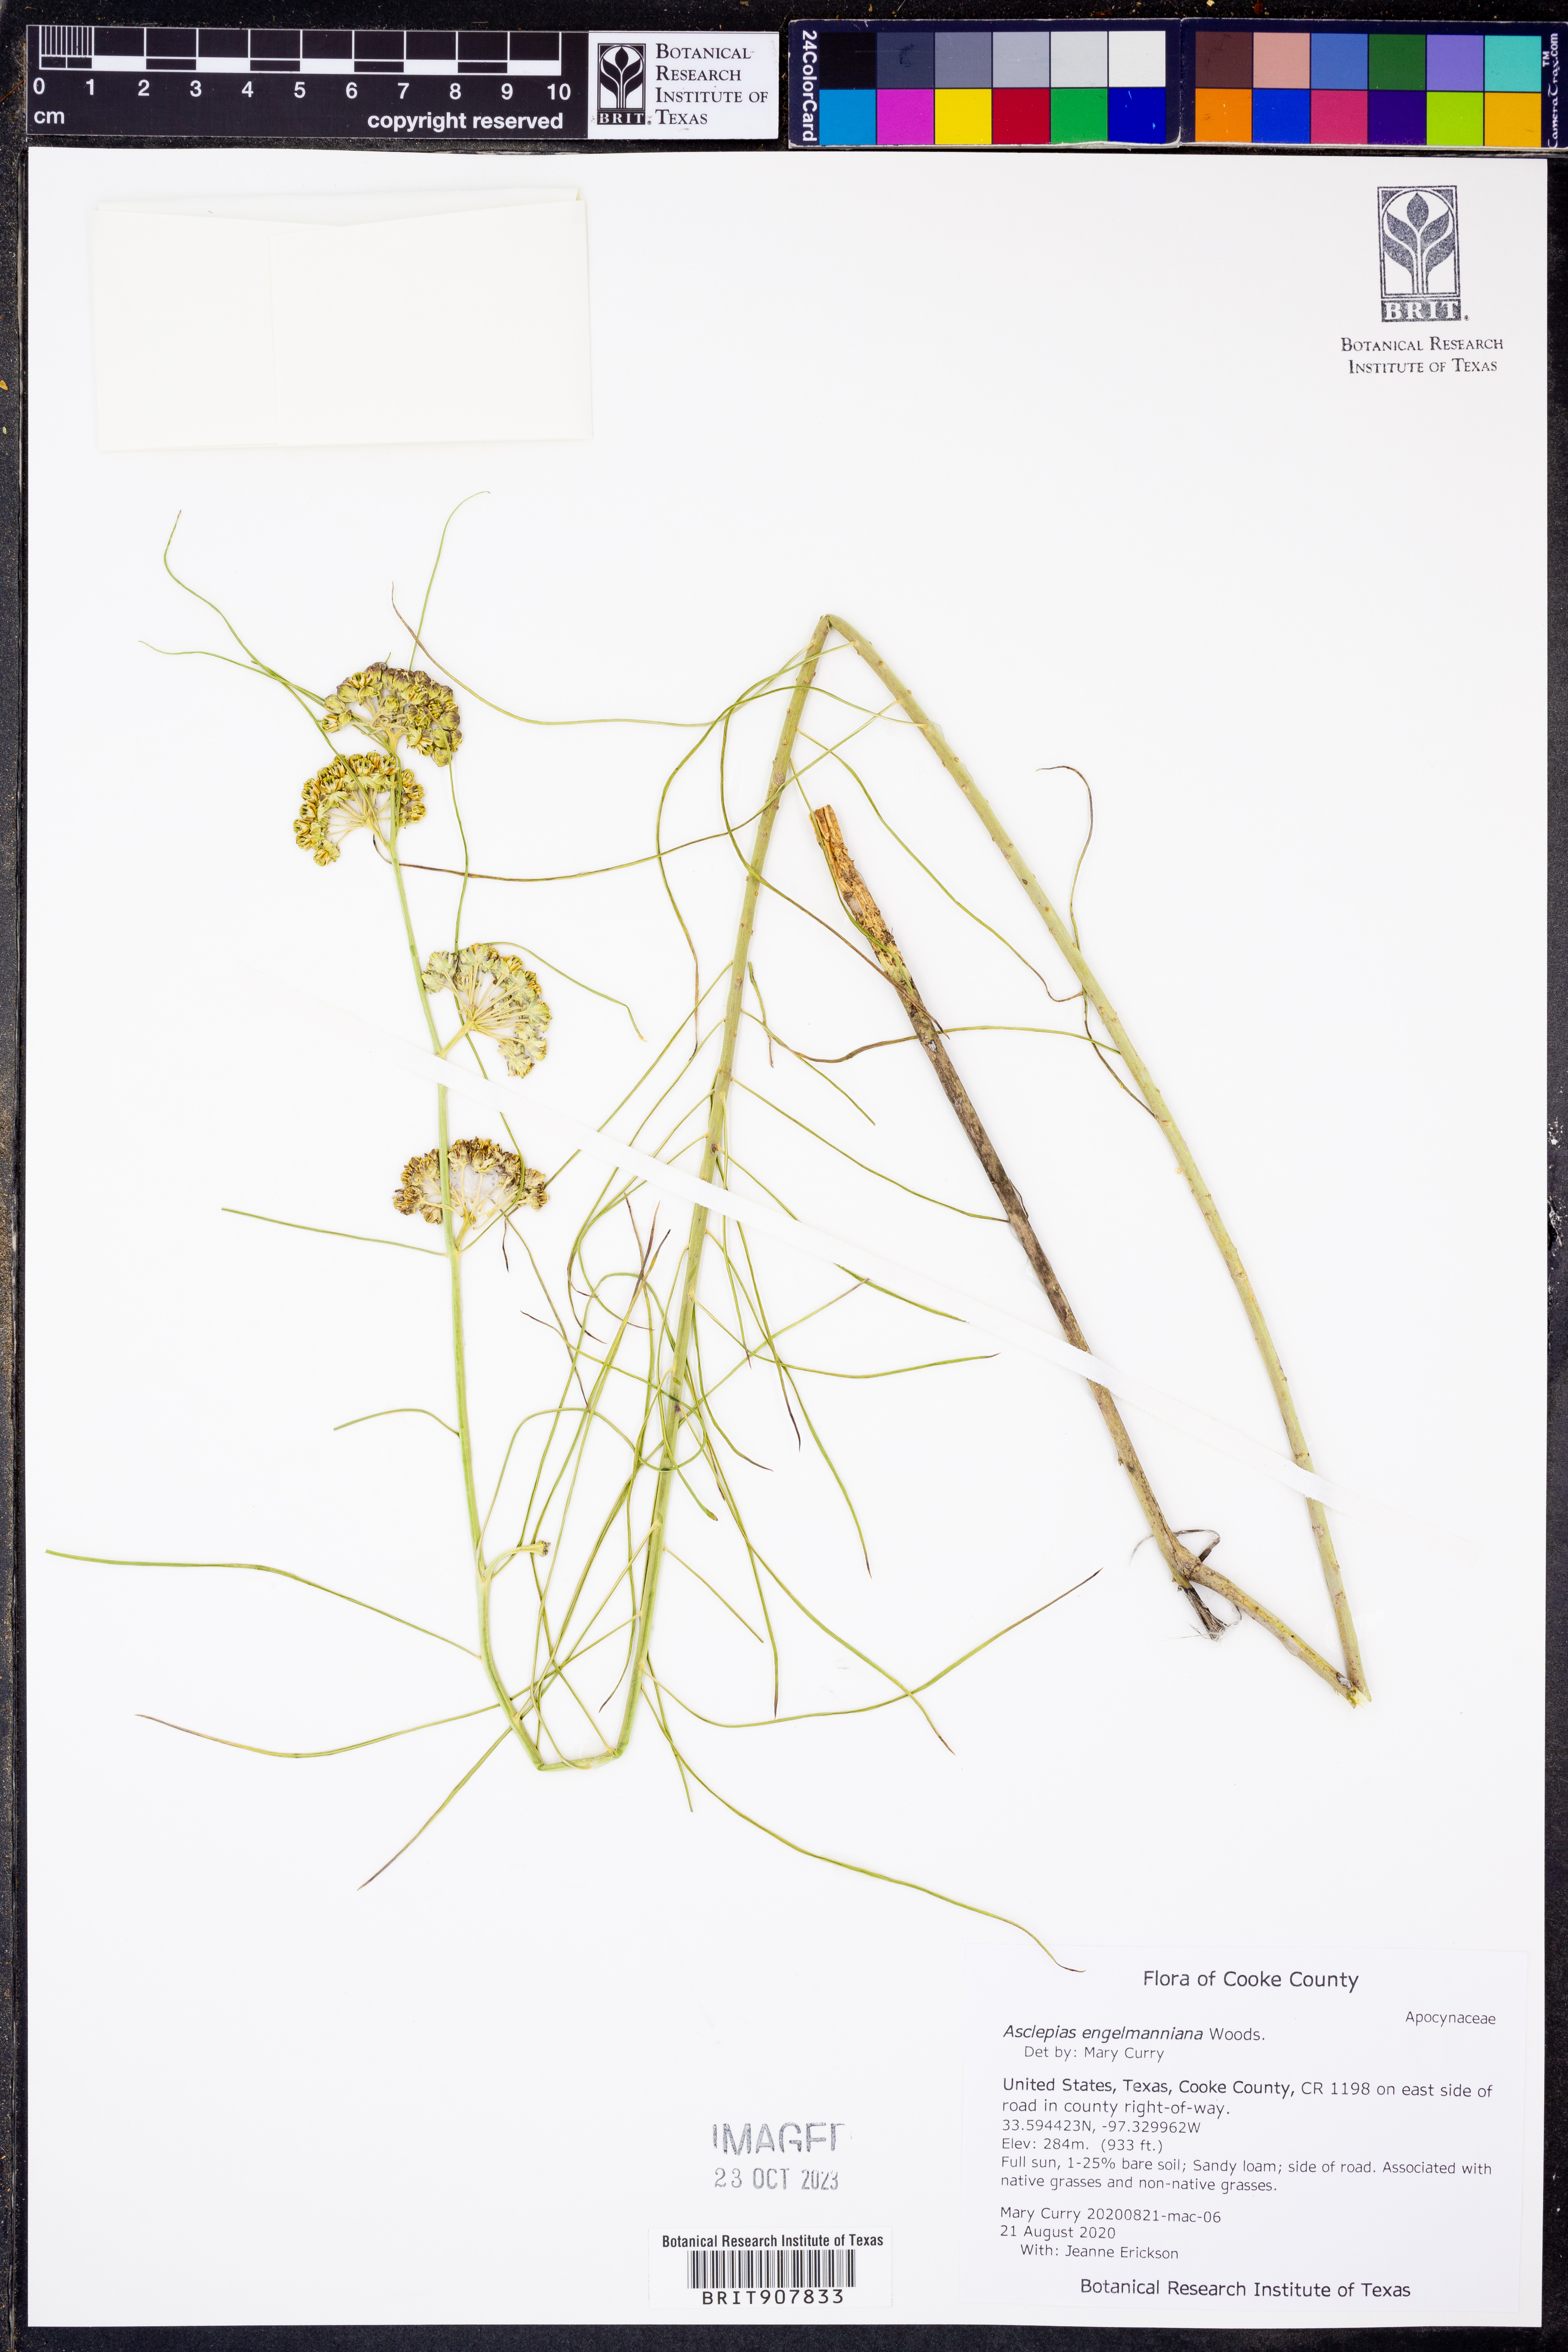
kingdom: Plantae
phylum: Tracheophyta
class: Magnoliopsida
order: Gentianales
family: Apocynaceae
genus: Asclepias
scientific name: Asclepias engelmanniana
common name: Engelmann's milkweed
